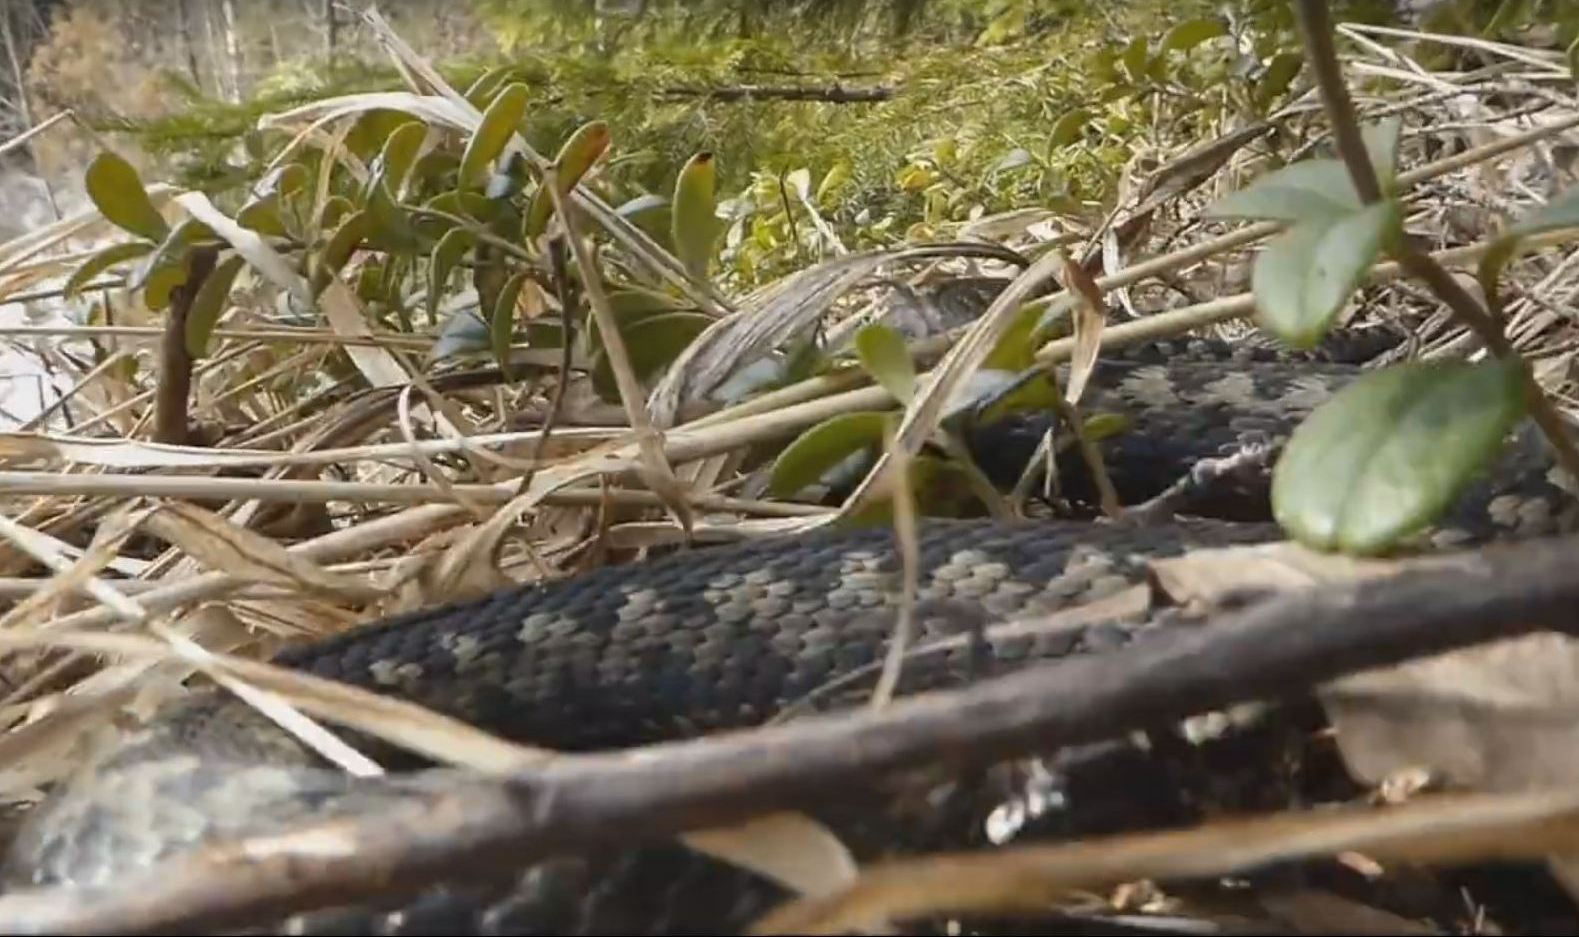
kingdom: Animalia
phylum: Chordata
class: Squamata
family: Viperidae
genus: Vipera
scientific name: Vipera berus
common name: Adder
